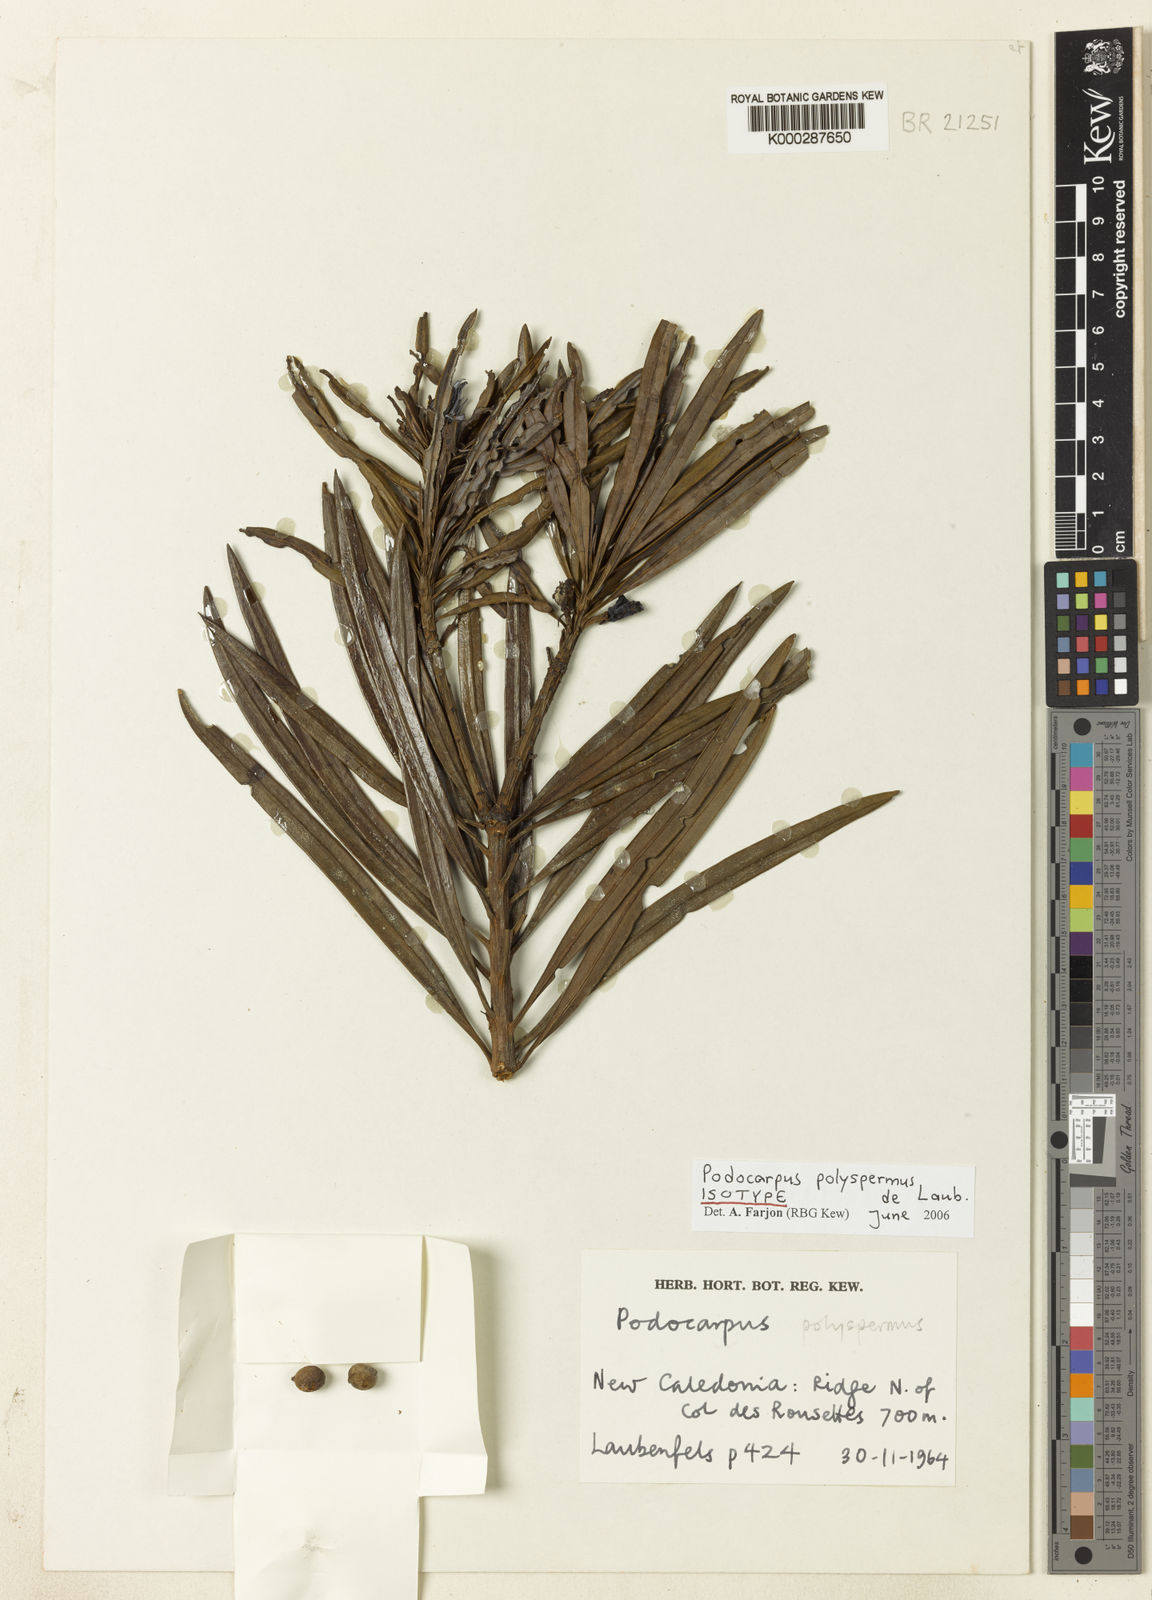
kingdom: Plantae
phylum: Tracheophyta
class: Pinopsida
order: Pinales
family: Podocarpaceae
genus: Podocarpus
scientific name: Podocarpus polyspermus
